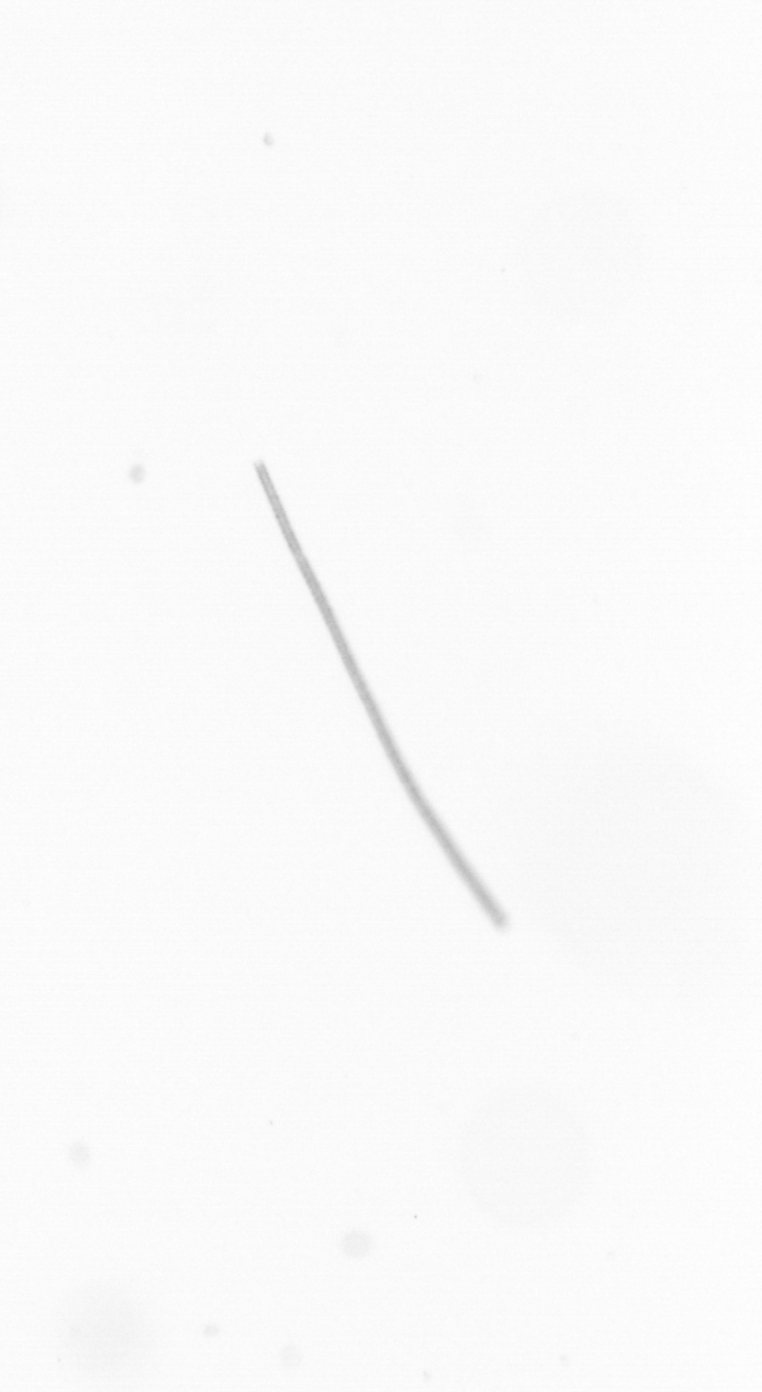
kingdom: Chromista
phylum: Ochrophyta
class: Bacillariophyceae
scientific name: Bacillariophyceae
